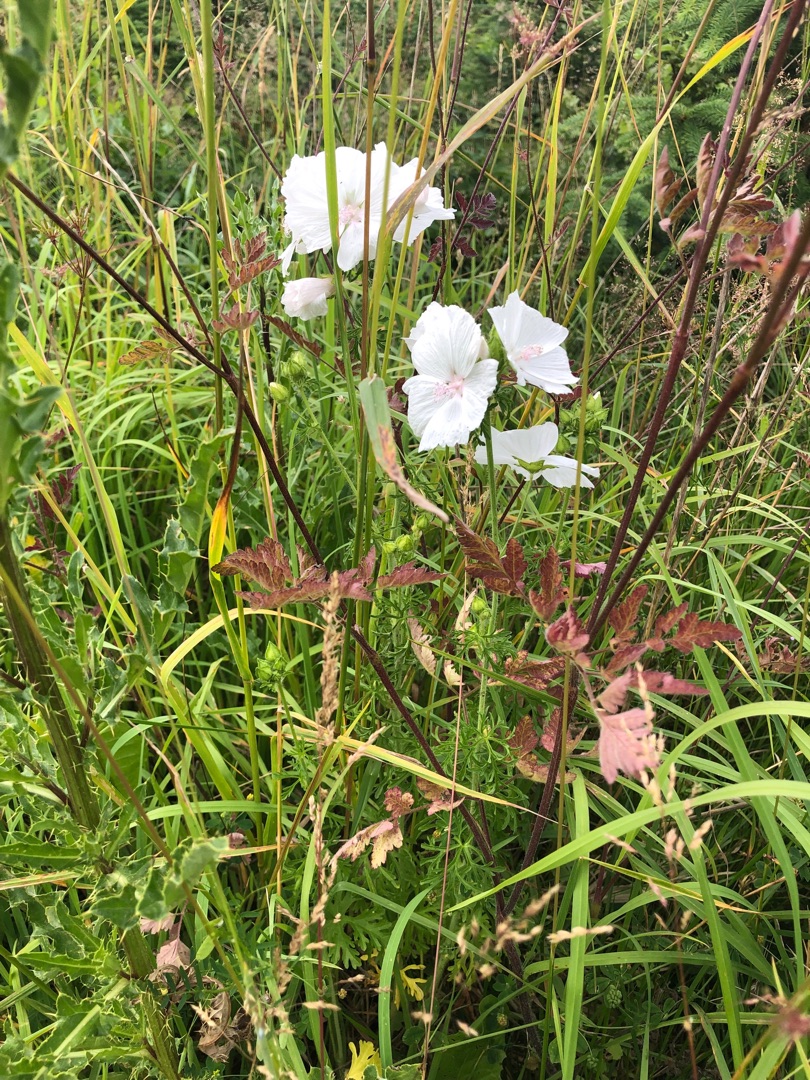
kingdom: Plantae
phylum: Tracheophyta
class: Magnoliopsida
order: Malvales
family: Malvaceae
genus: Malva
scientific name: Malva moschata
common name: Moskus-katost
